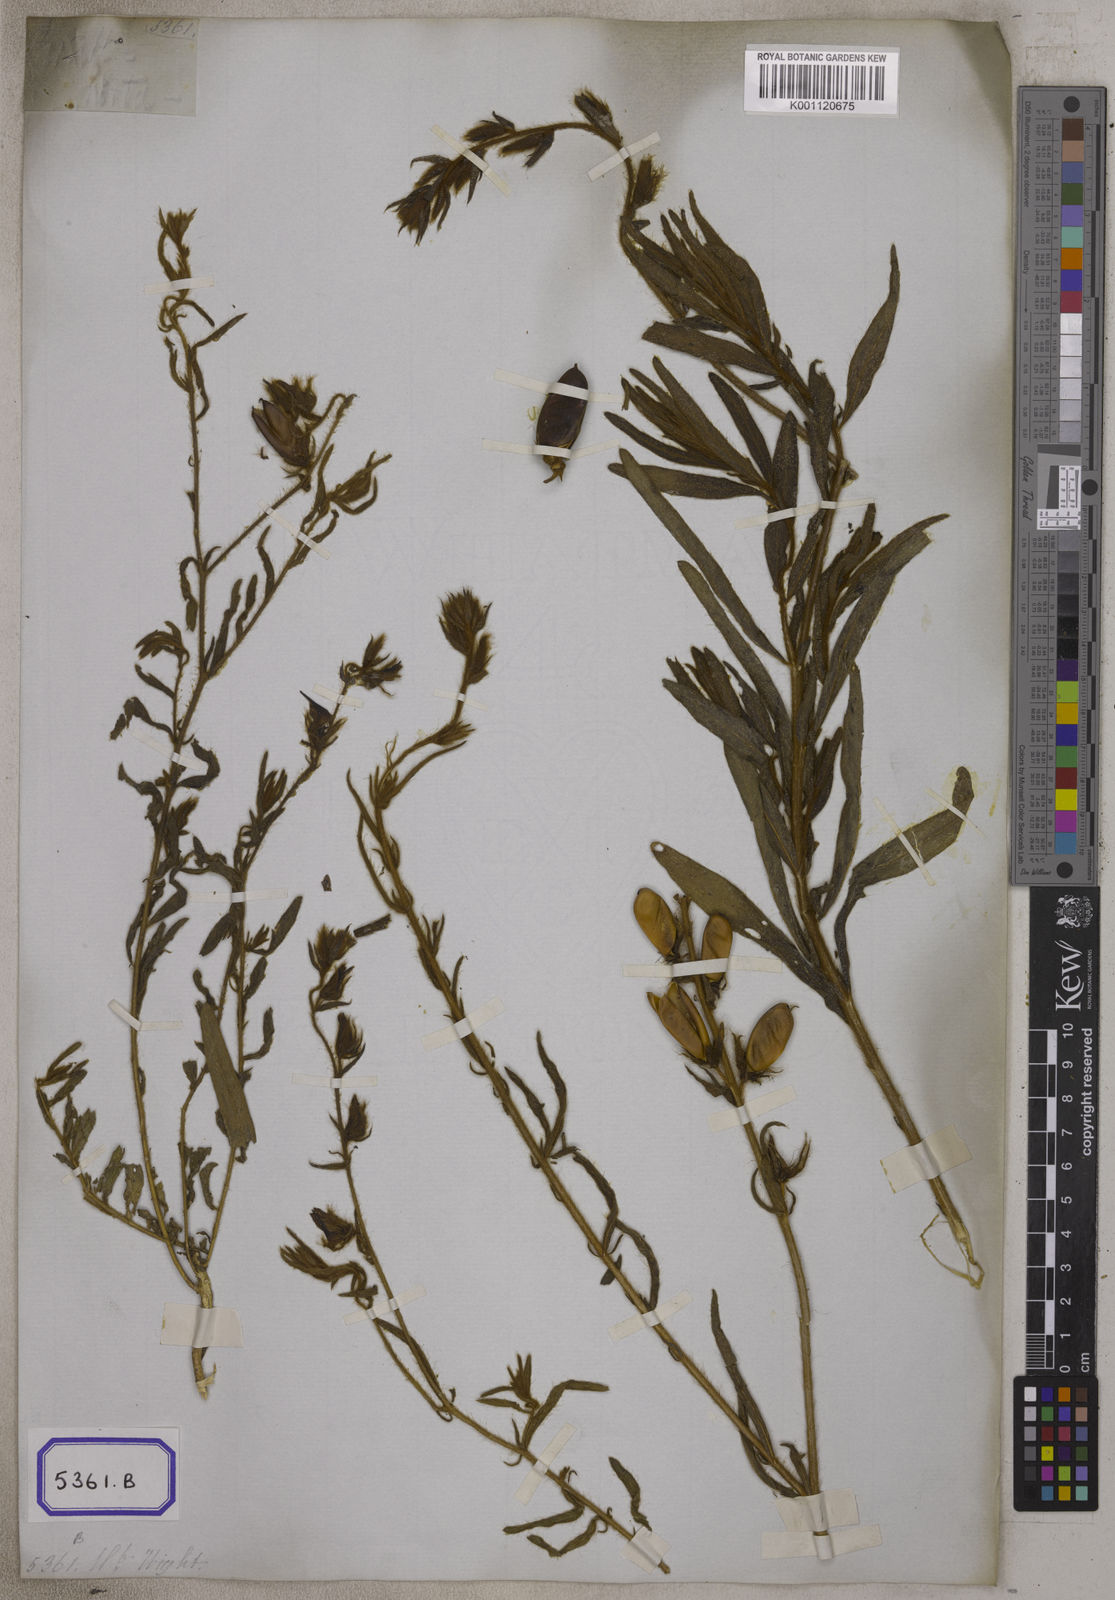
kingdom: Plantae
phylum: Tracheophyta
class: Magnoliopsida
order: Fabales
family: Fabaceae
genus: Crotalaria
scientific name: Crotalaria mysorensis
